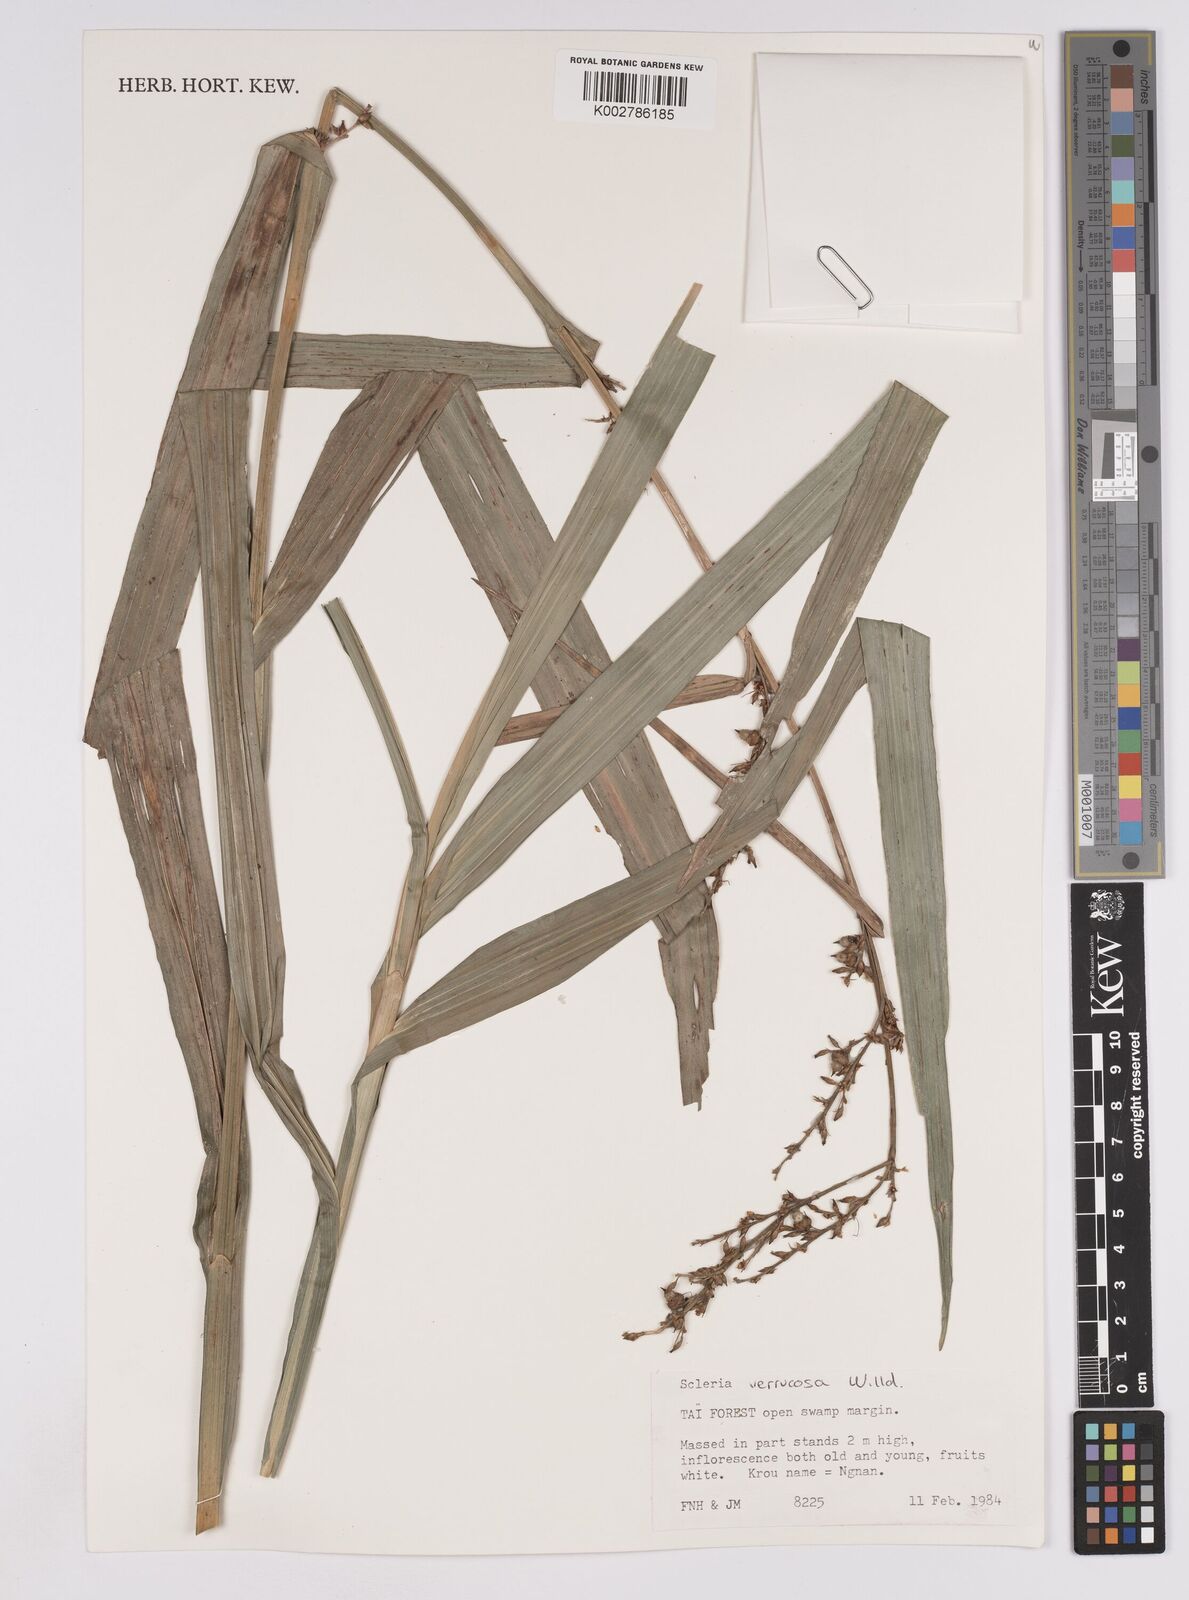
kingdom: Plantae
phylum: Tracheophyta
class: Liliopsida
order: Poales
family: Cyperaceae
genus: Scleria
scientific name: Scleria verrucosa
